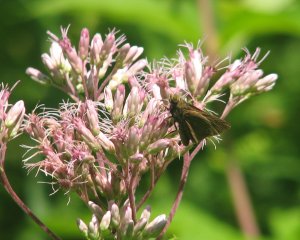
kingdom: Animalia
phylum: Arthropoda
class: Insecta
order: Lepidoptera
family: Hesperiidae
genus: Euphyes
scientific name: Euphyes vestris
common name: Dun Skipper
